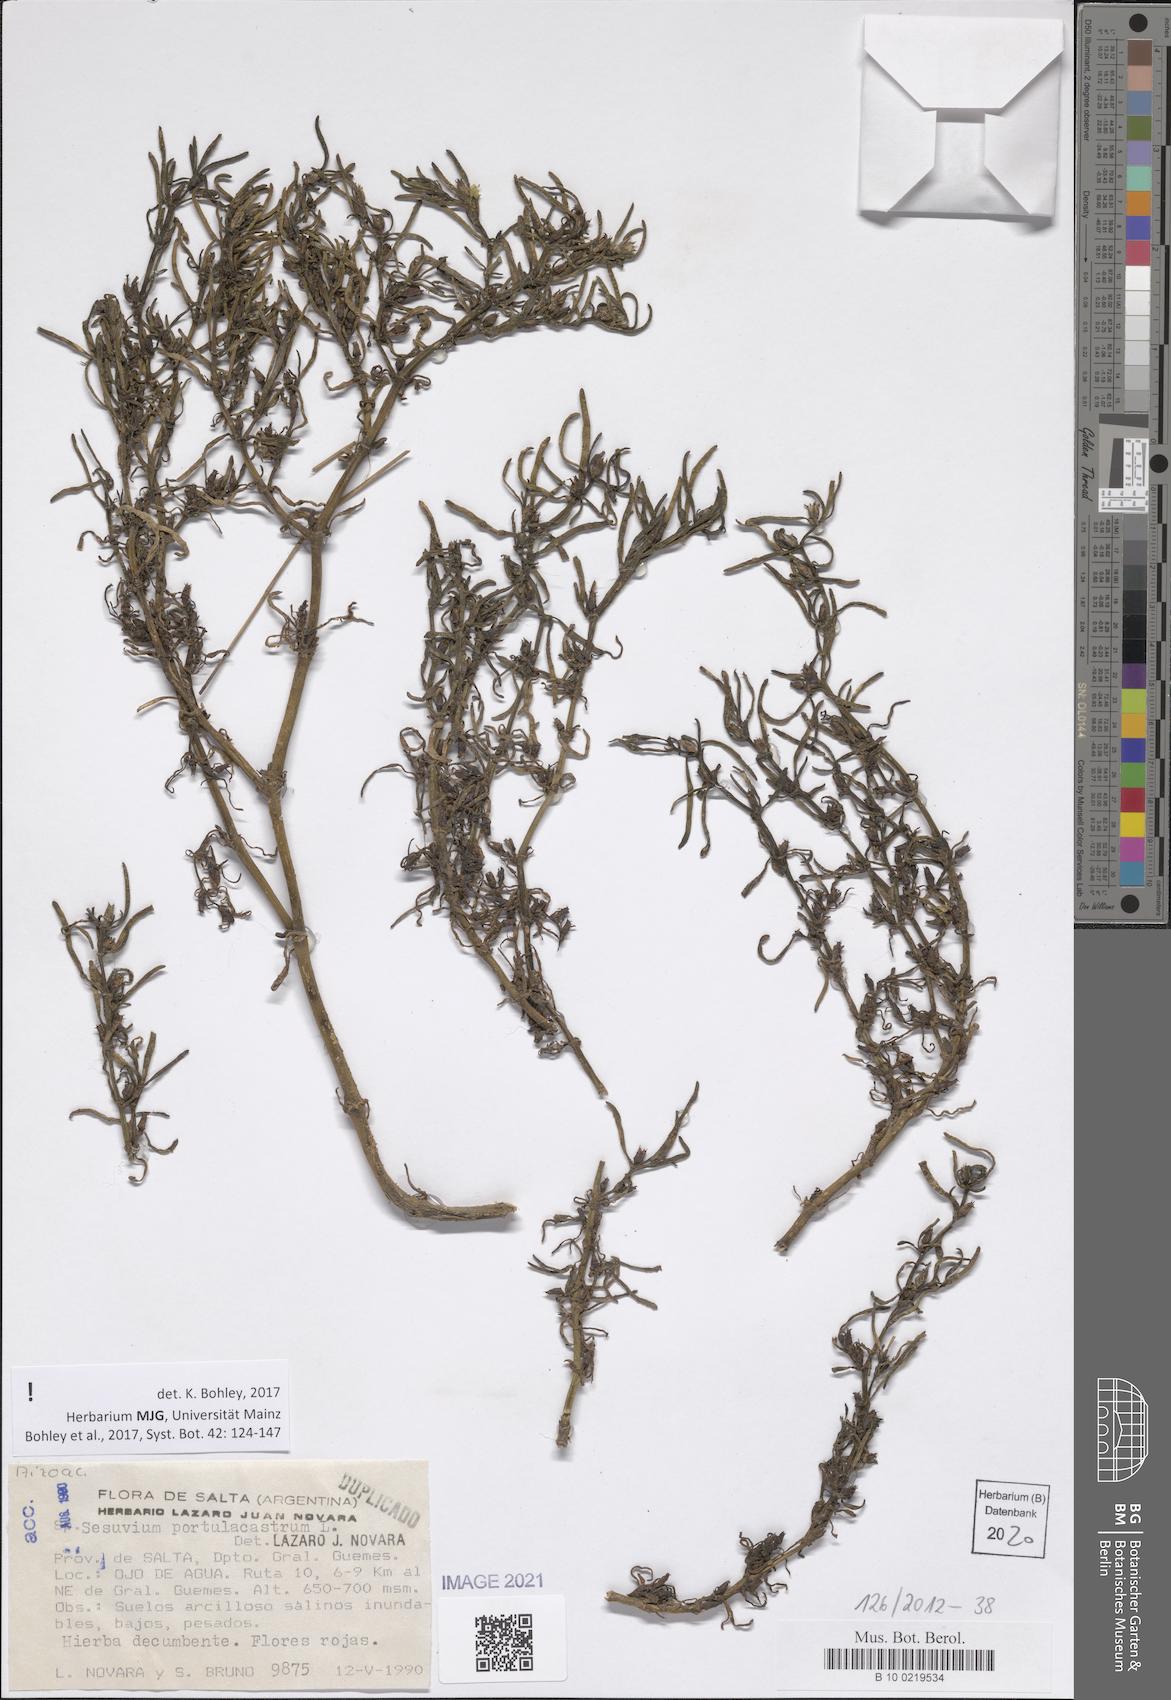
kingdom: Plantae
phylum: Tracheophyta
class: Magnoliopsida
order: Caryophyllales
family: Aizoaceae
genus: Sesuvium
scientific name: Sesuvium portulacastrum
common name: Sea-purslane
